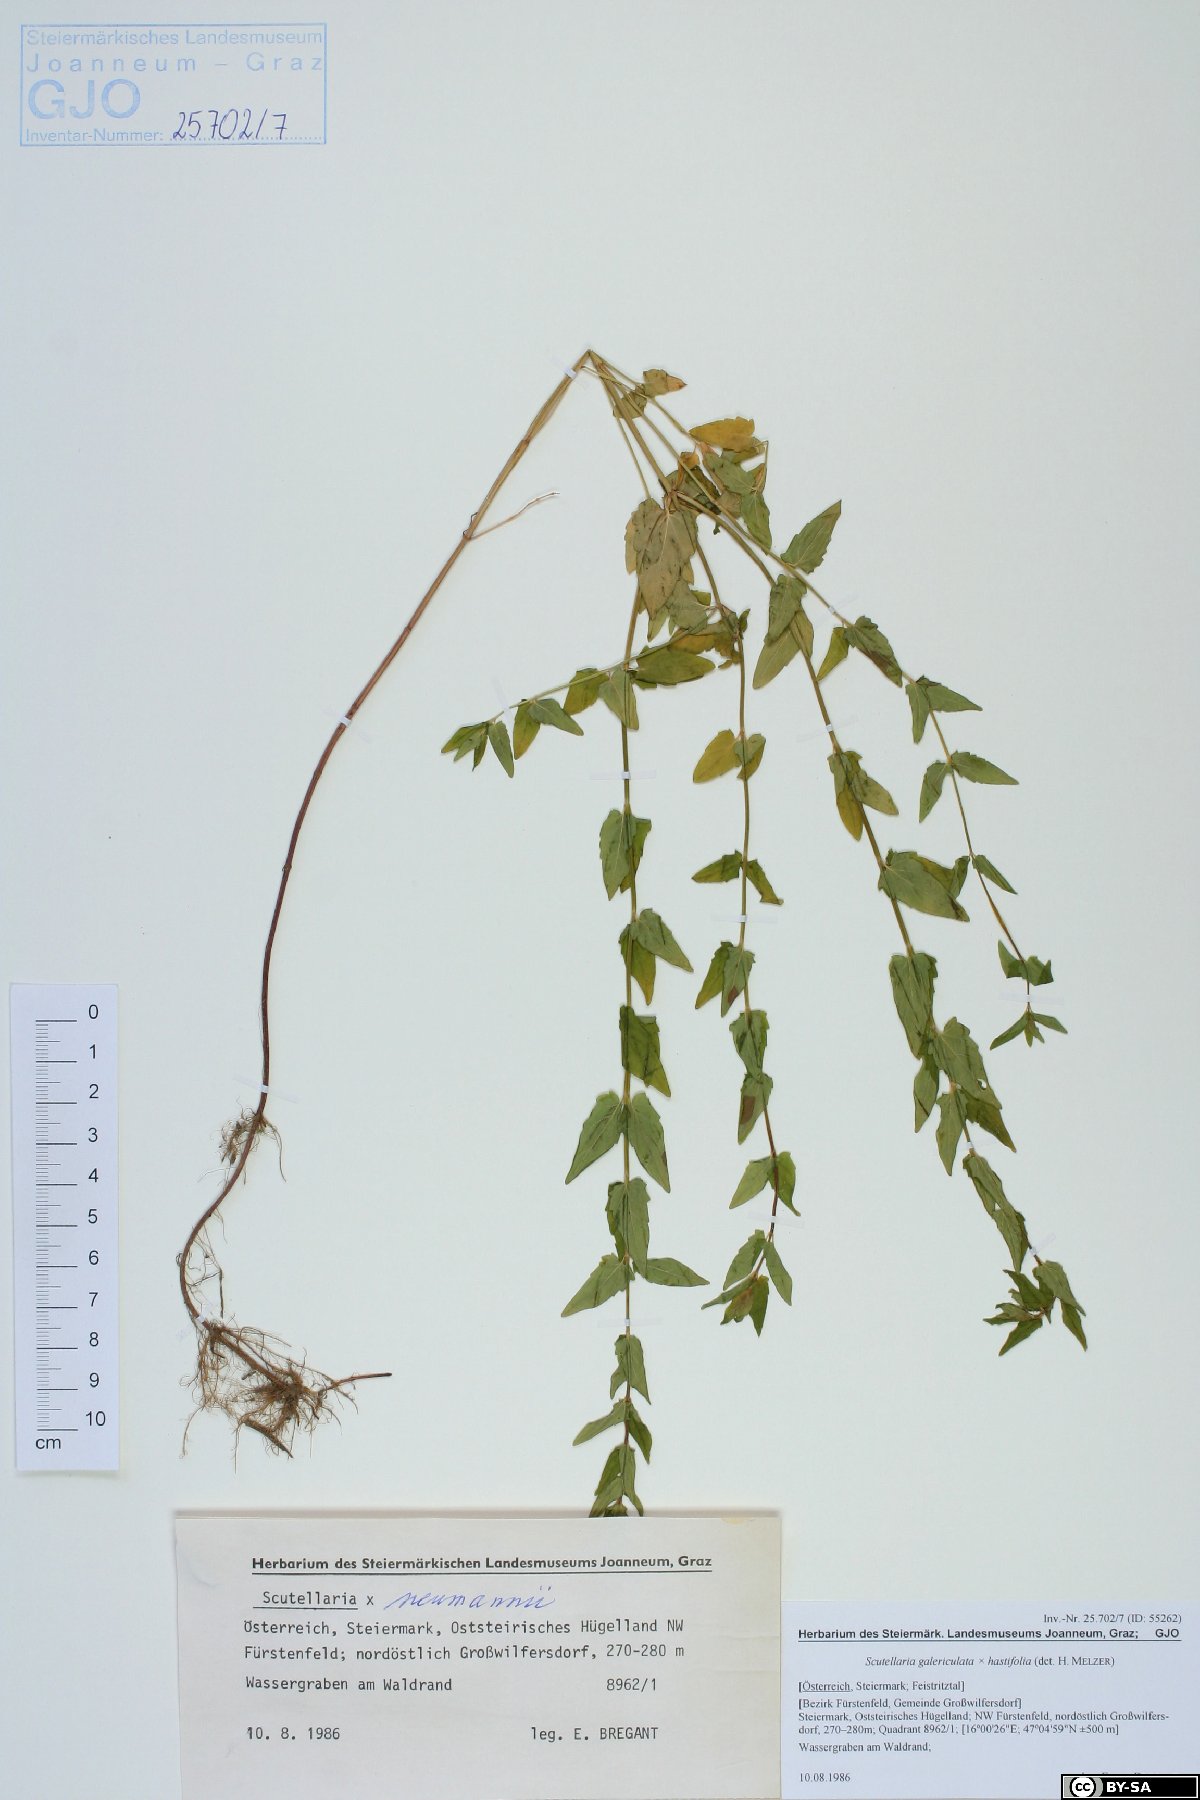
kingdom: Plantae
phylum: Tracheophyta
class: Magnoliopsida
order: Lamiales
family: Lamiaceae
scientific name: Lamiaceae
